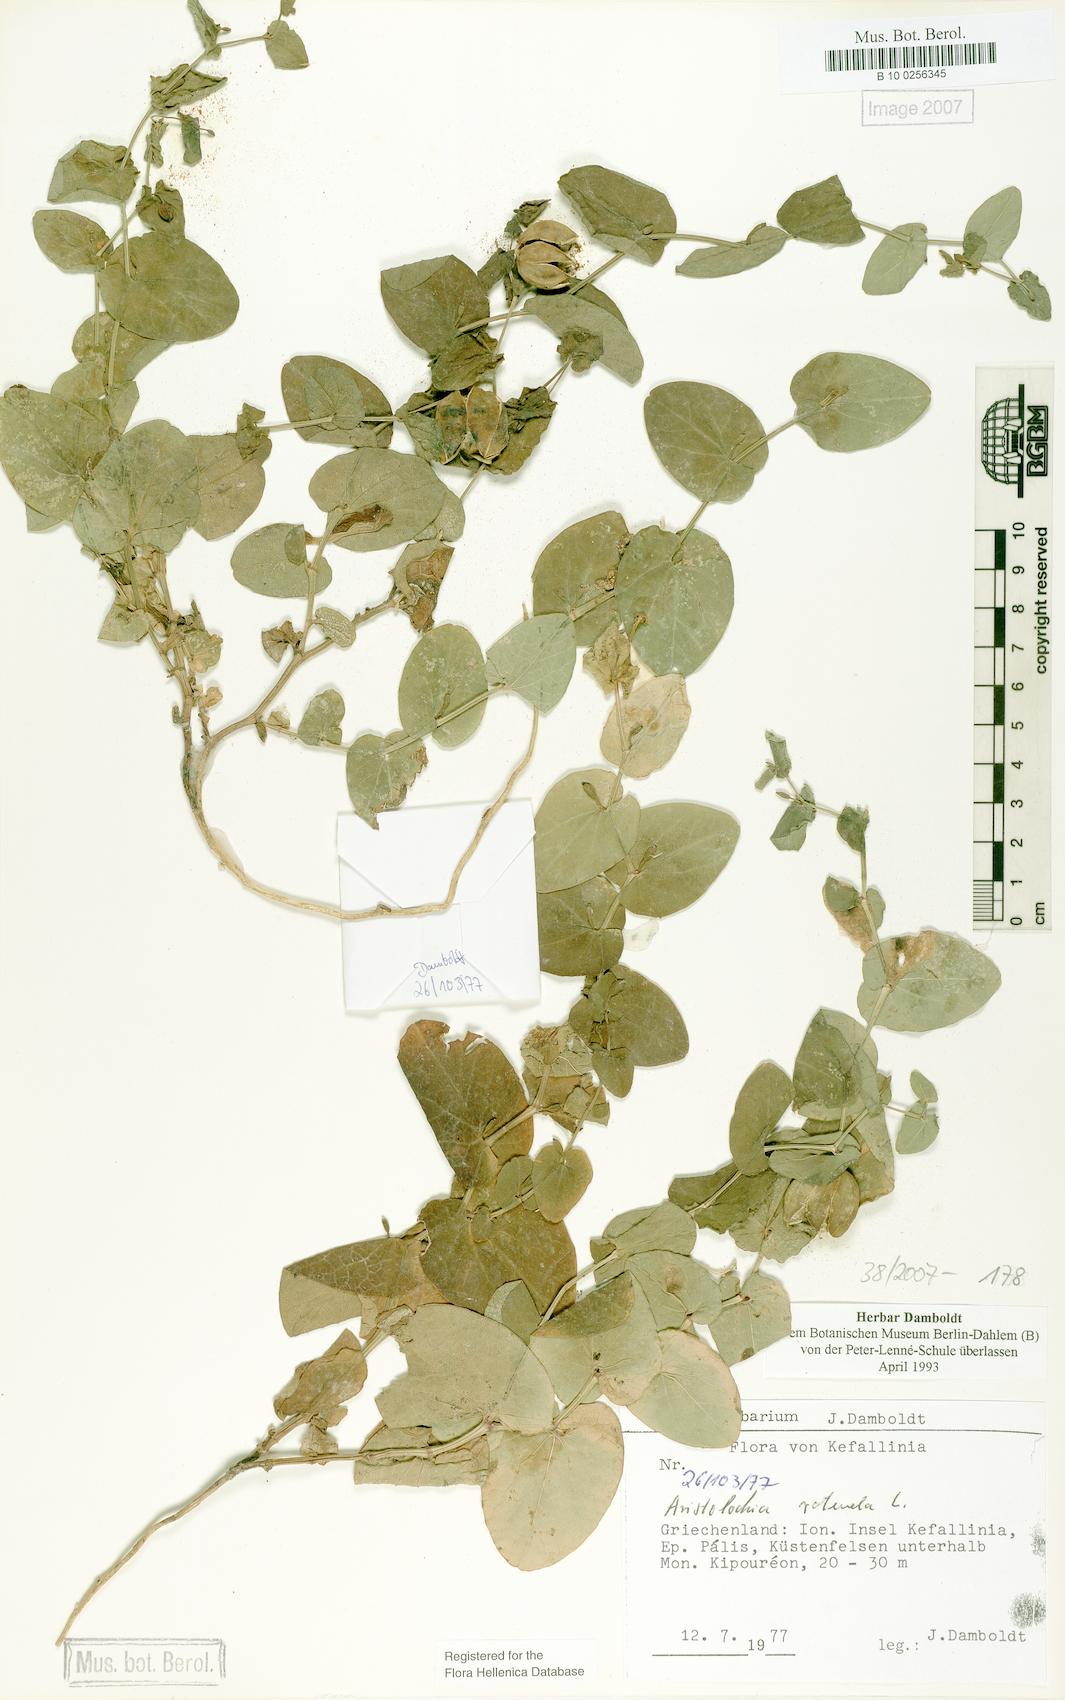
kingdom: Plantae
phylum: Tracheophyta
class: Magnoliopsida
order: Piperales
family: Aristolochiaceae
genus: Aristolochia
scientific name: Aristolochia rotunda
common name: Smearwort
